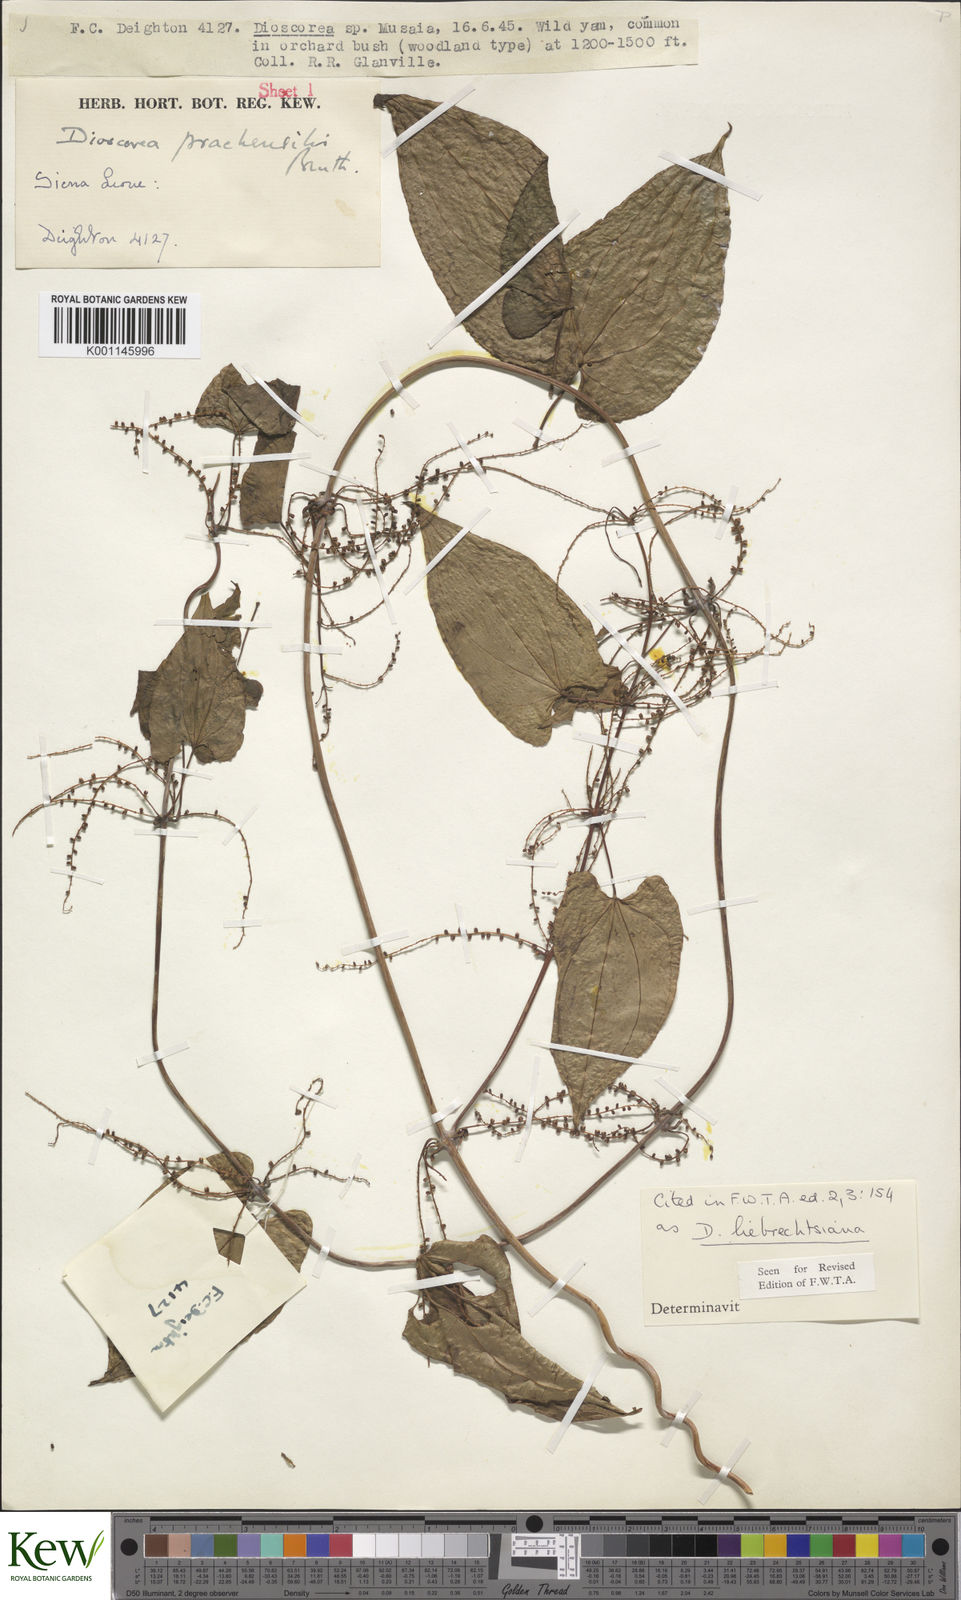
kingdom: Plantae
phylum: Tracheophyta
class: Liliopsida
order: Dioscoreales
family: Dioscoreaceae
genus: Dioscorea
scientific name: Dioscorea praehensilis
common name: Bush yam
